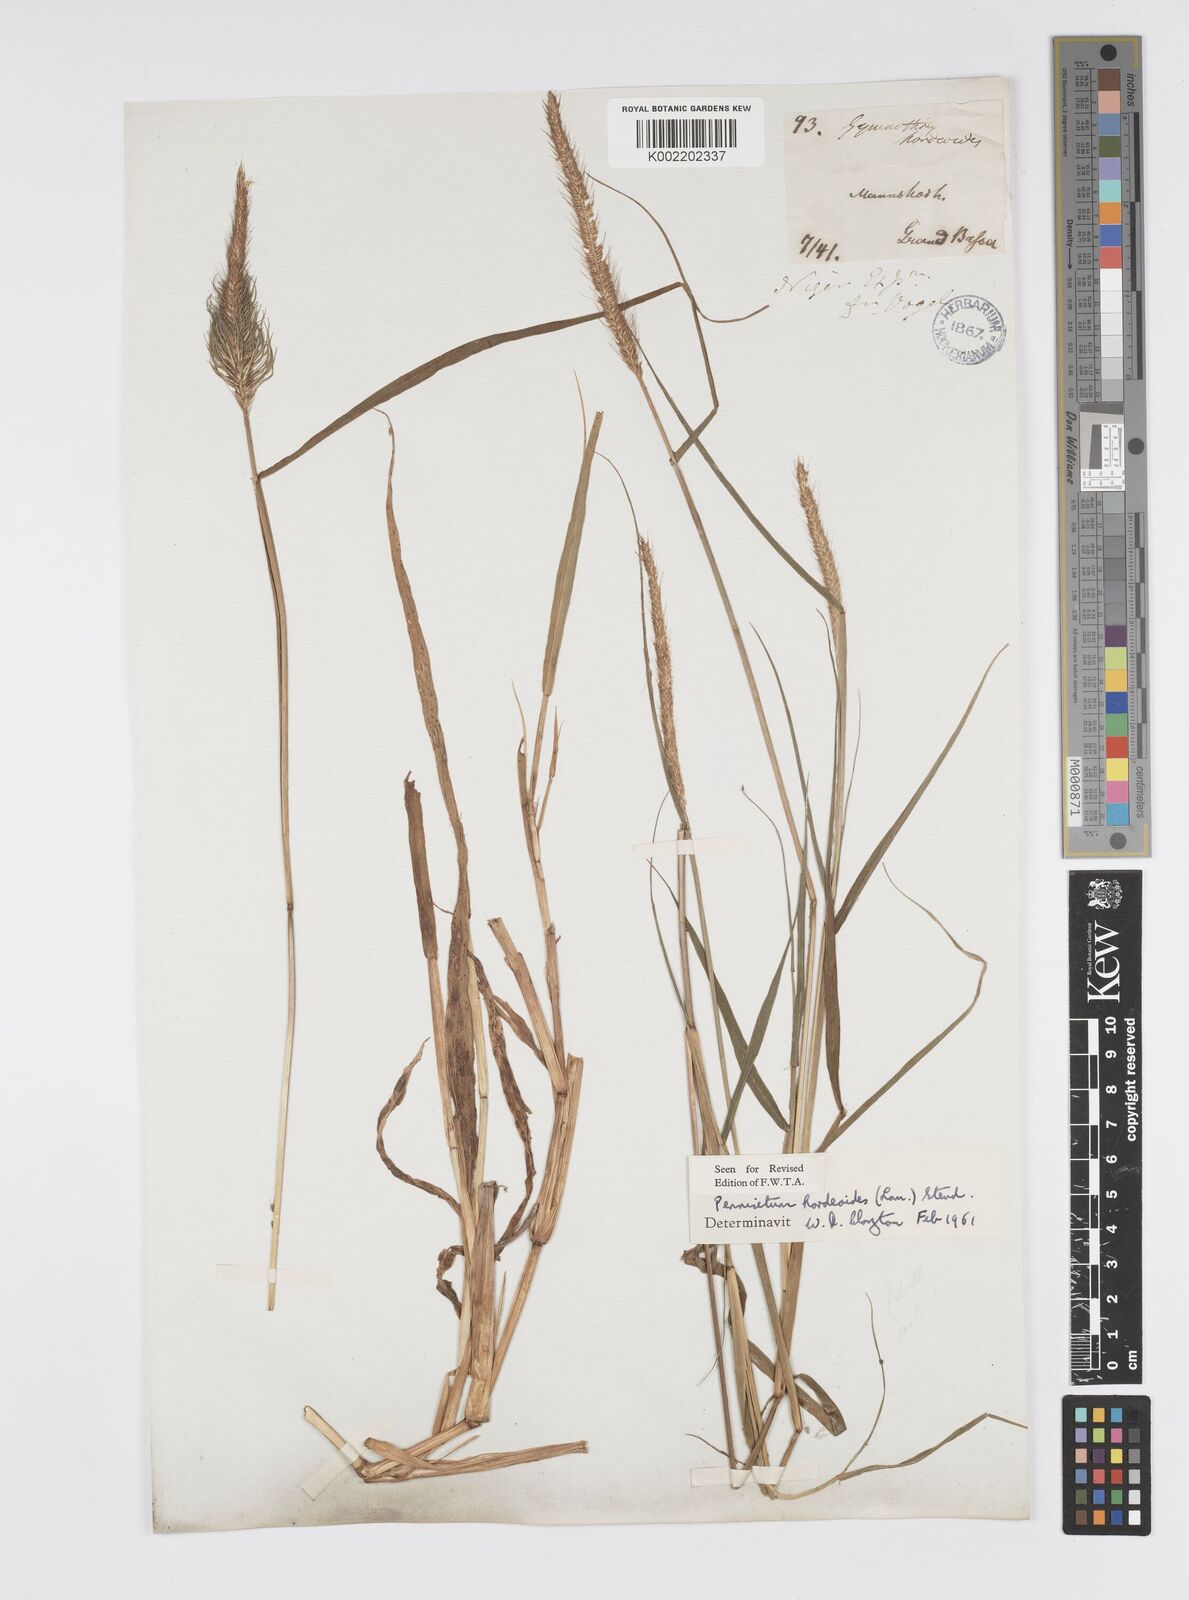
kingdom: Plantae
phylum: Tracheophyta
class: Liliopsida
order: Poales
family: Poaceae
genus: Cenchrus
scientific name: Cenchrus hordeoides
